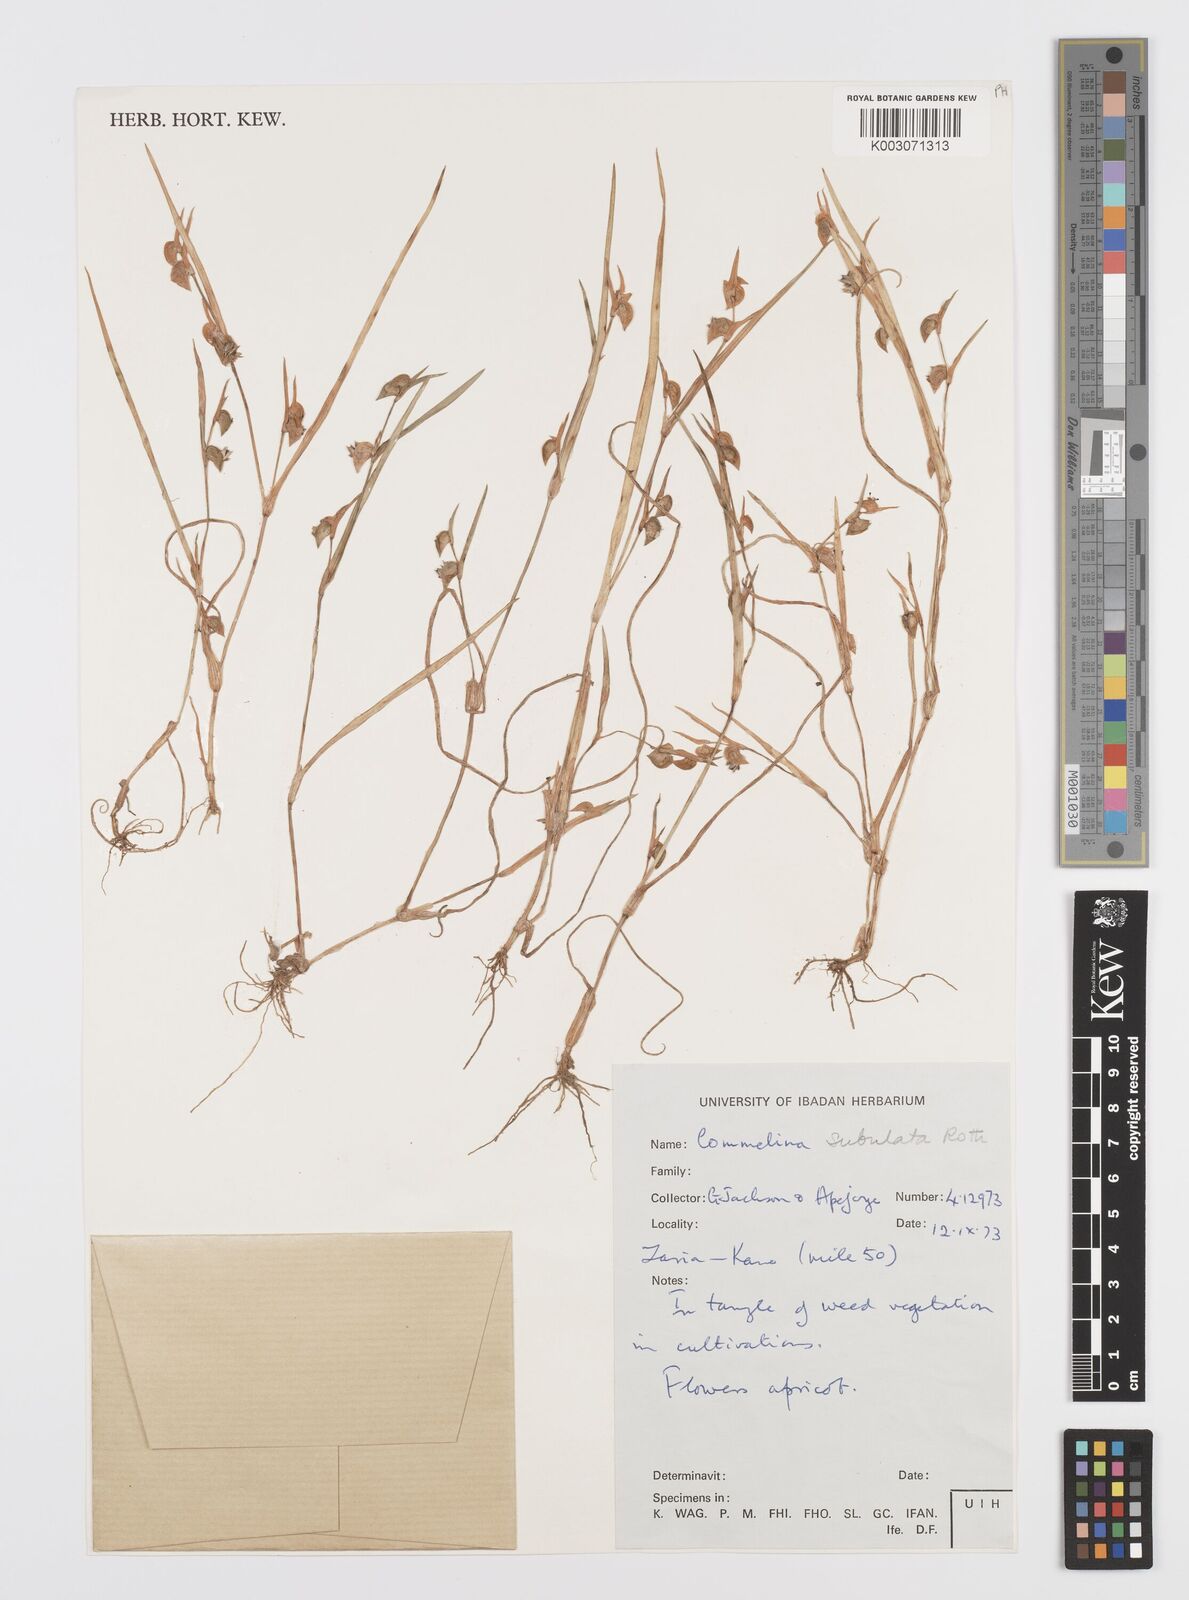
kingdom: Plantae
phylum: Tracheophyta
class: Liliopsida
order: Commelinales
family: Commelinaceae
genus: Commelina
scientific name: Commelina subulata
